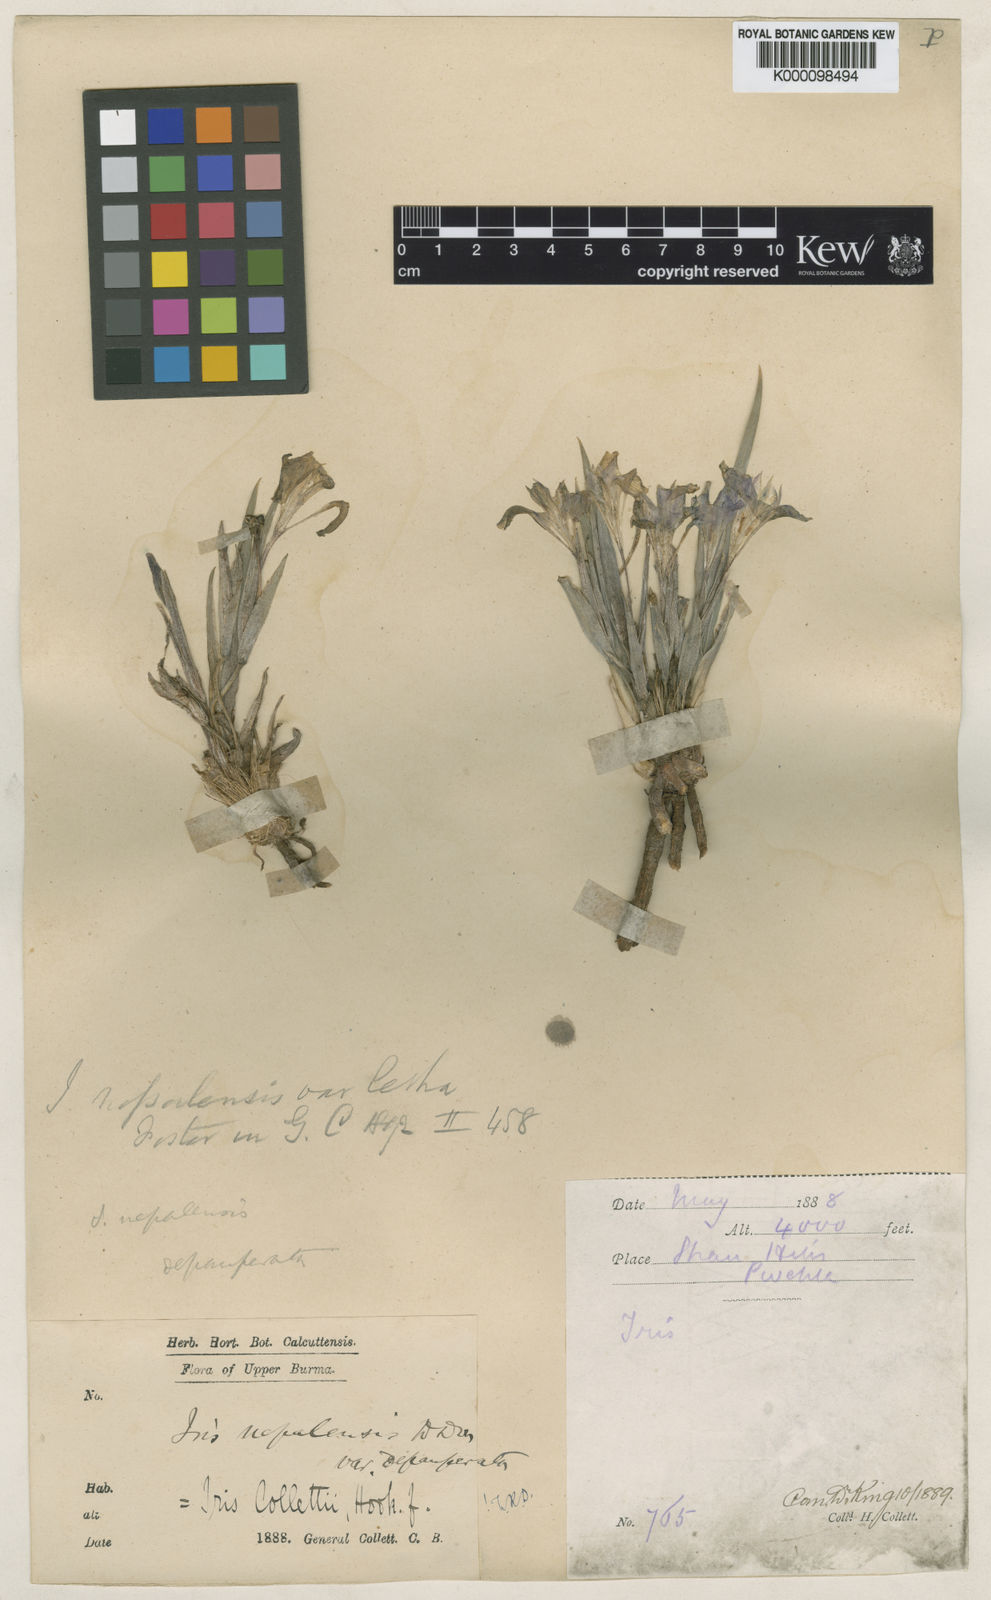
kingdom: Plantae
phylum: Tracheophyta
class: Liliopsida
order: Asparagales
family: Iridaceae
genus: Iris
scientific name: Iris collettii
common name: Plateau iris
